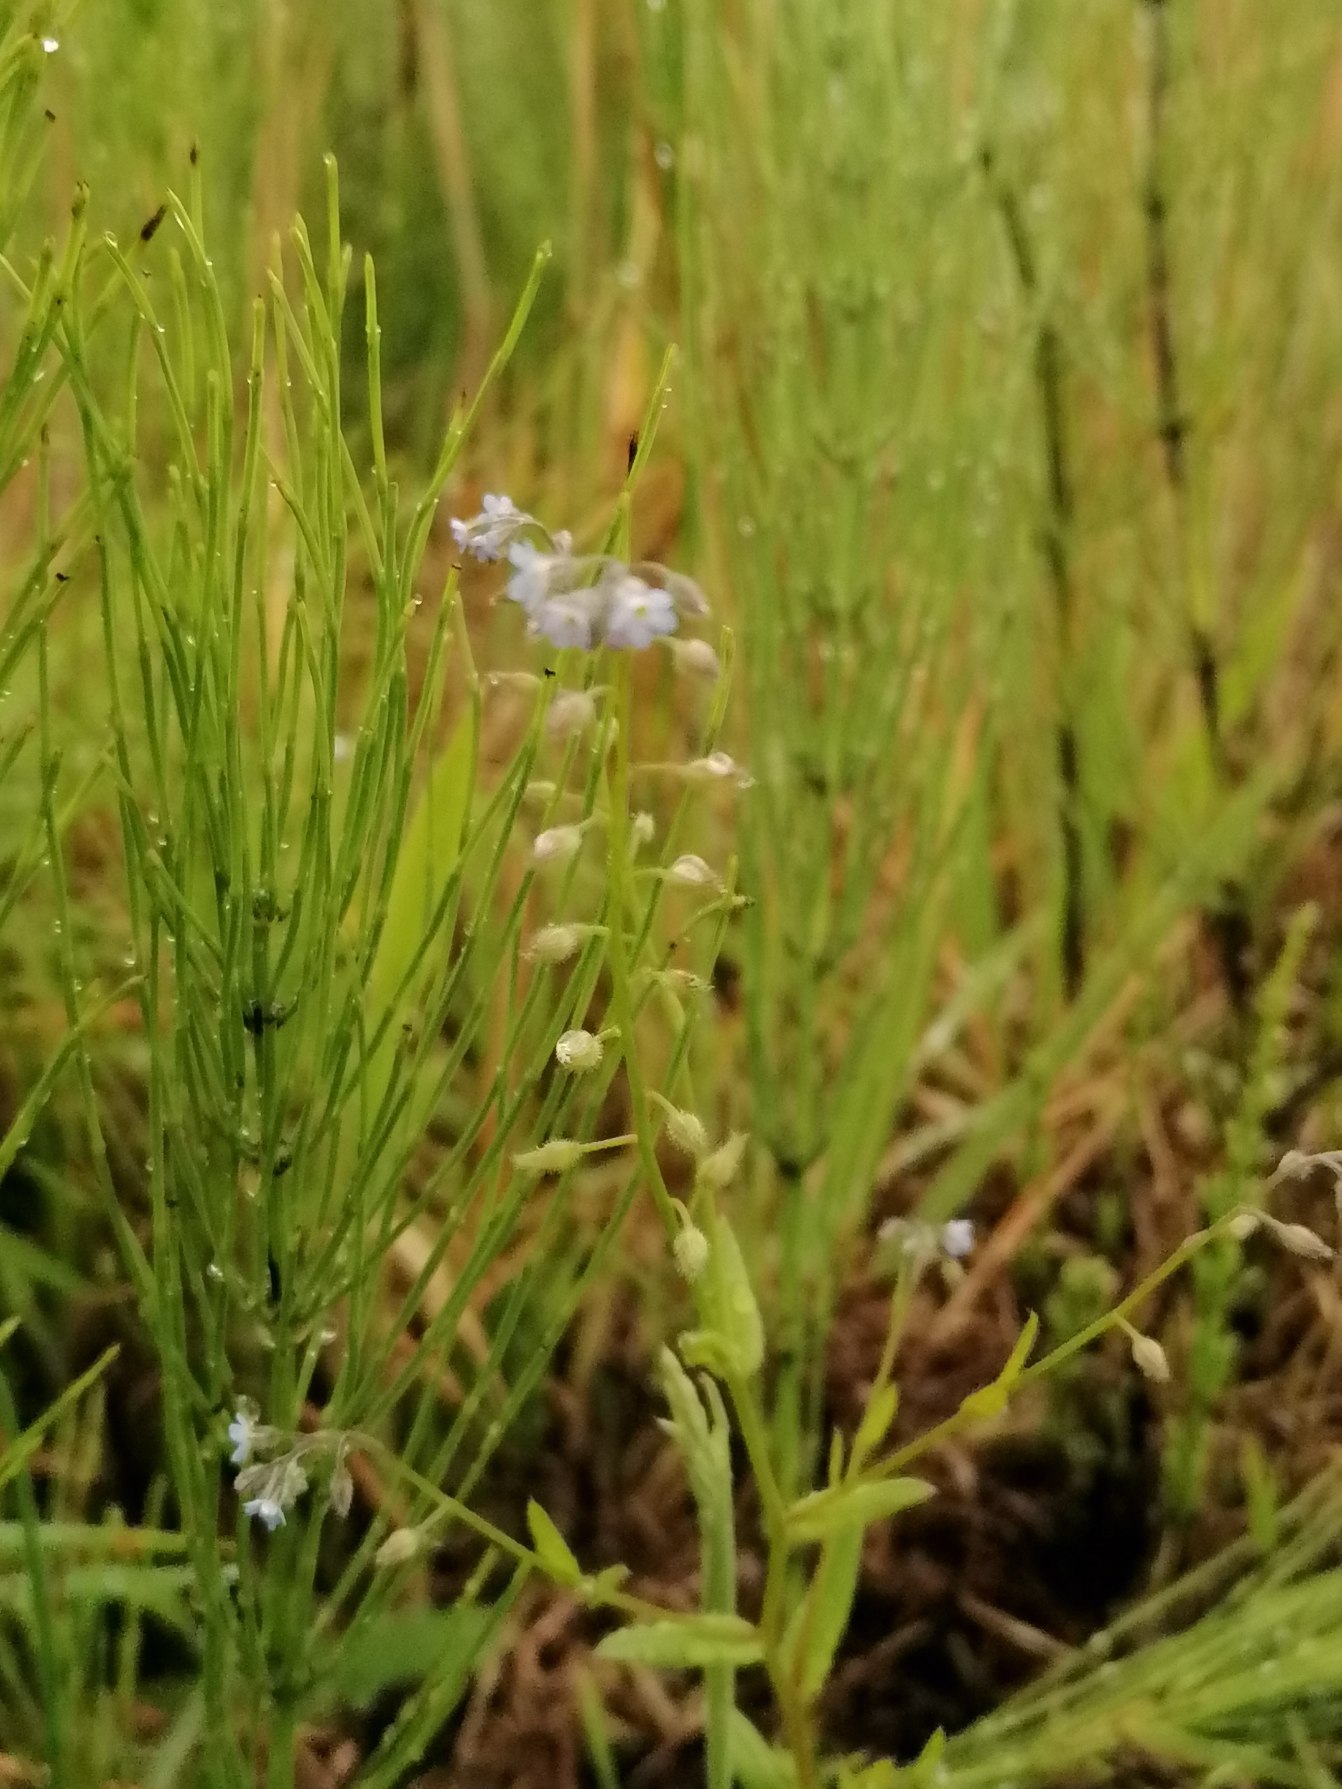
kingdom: Plantae
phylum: Tracheophyta
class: Magnoliopsida
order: Boraginales
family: Boraginaceae
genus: Myosotis
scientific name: Myosotis arvensis
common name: Mark-forglemmigej
